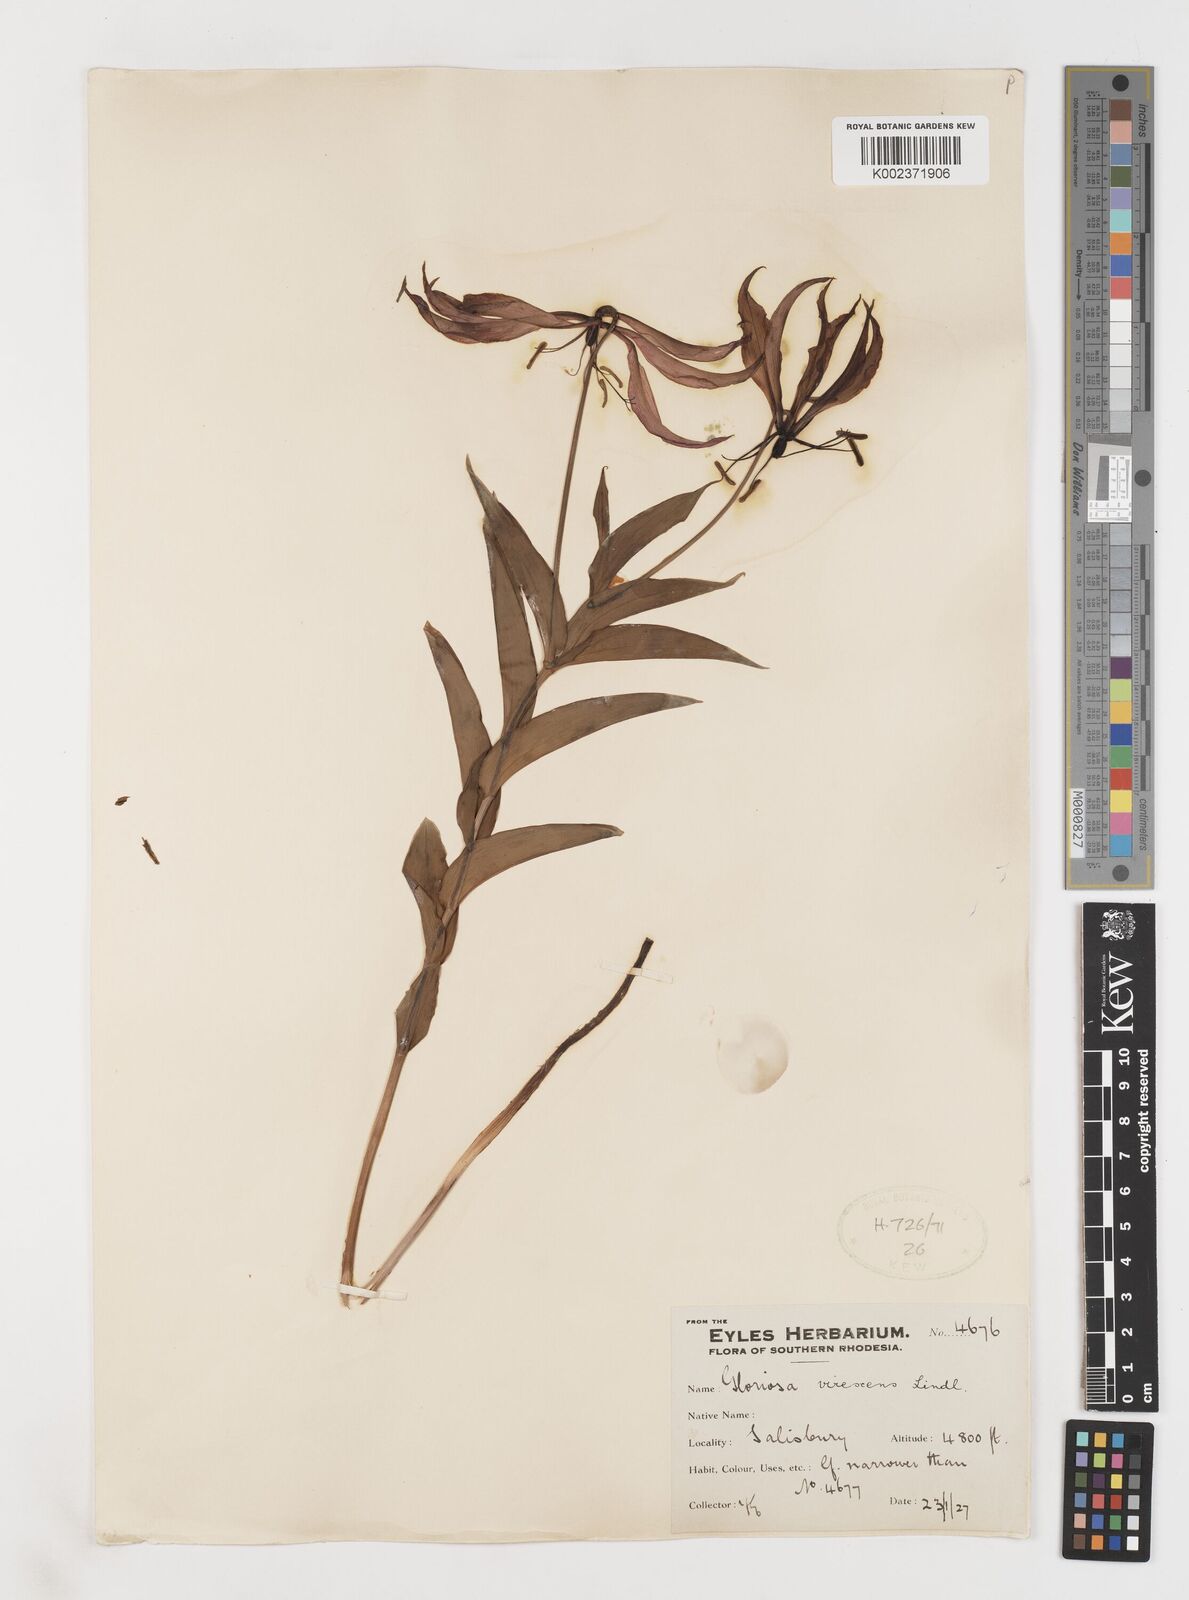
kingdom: Plantae
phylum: Tracheophyta
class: Liliopsida
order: Liliales
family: Colchicaceae
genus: Gloriosa
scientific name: Gloriosa simplex
